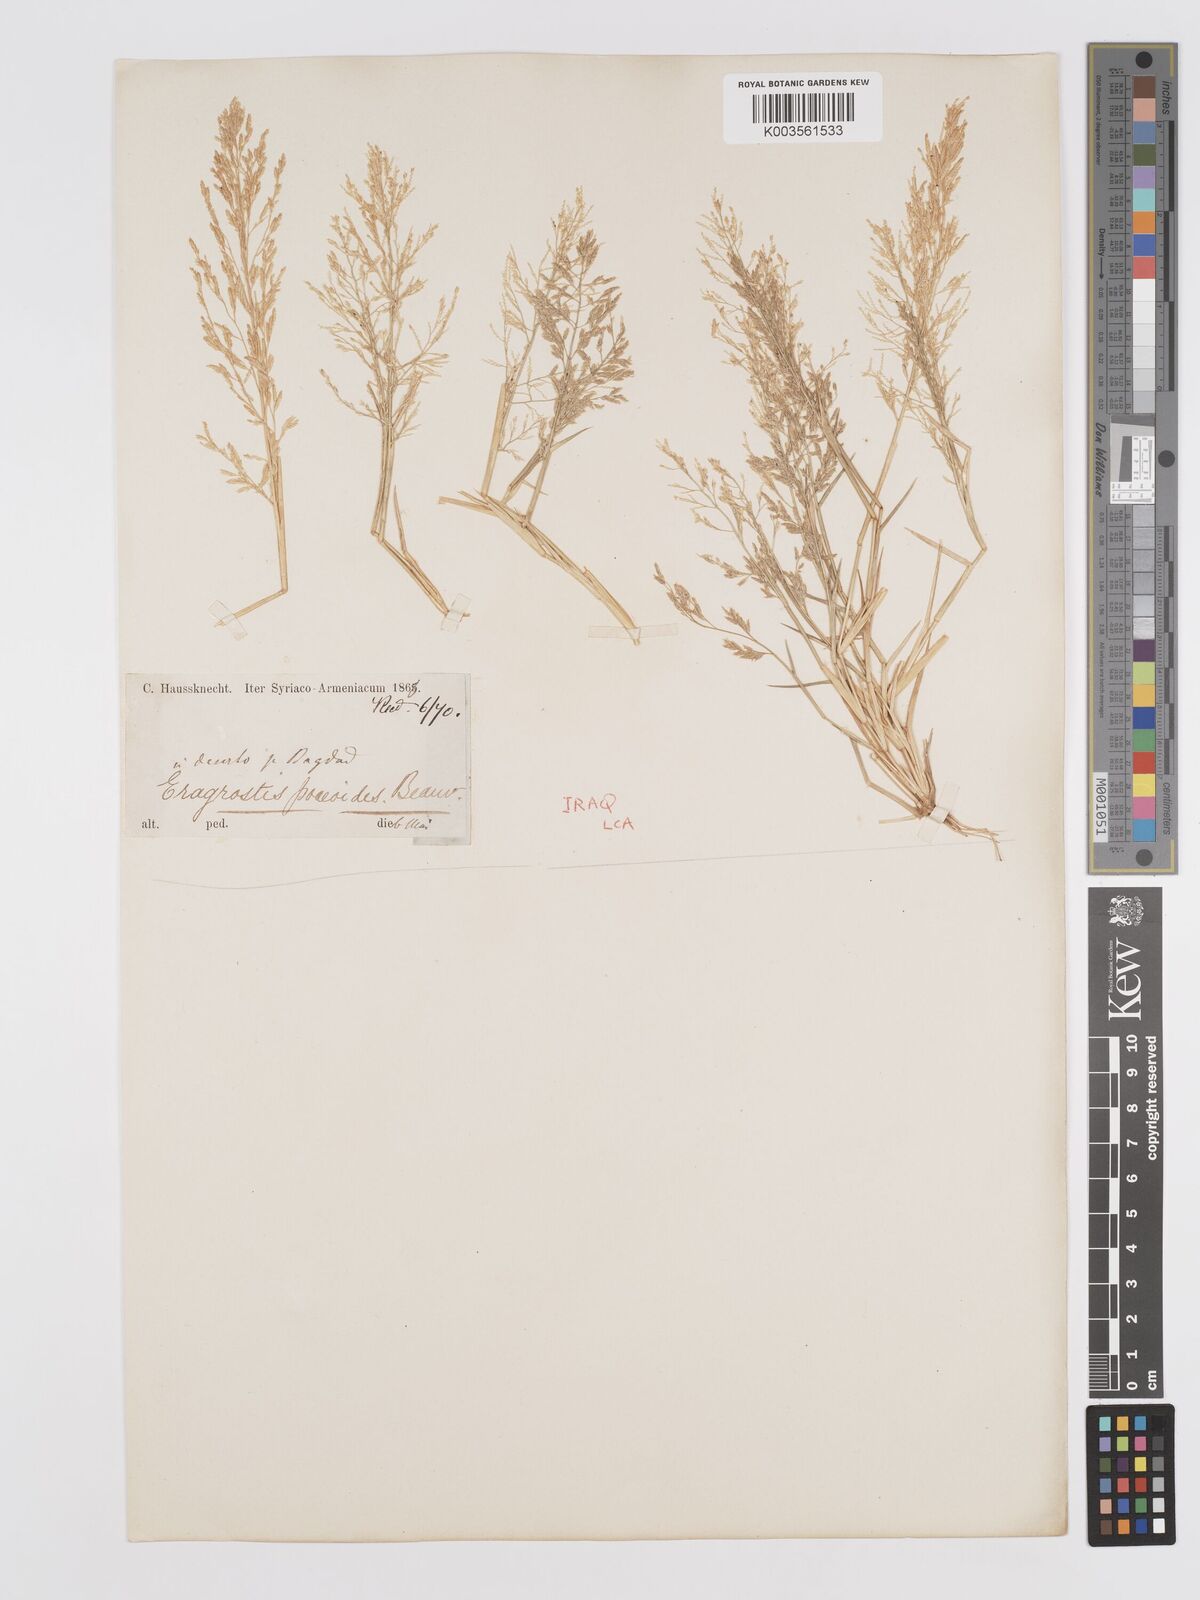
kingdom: Plantae
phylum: Tracheophyta
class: Liliopsida
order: Poales
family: Poaceae
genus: Eragrostis
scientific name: Eragrostis minor
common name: Small love-grass
